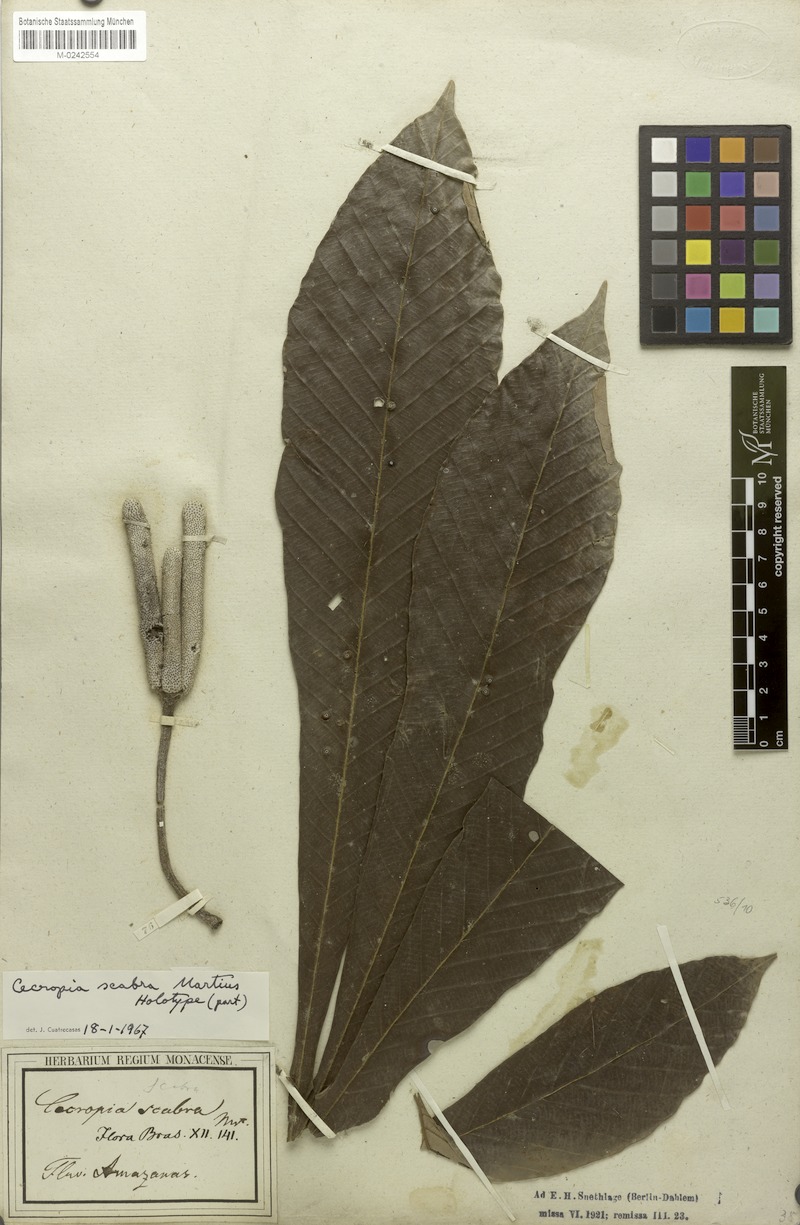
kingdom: Plantae
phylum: Tracheophyta
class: Magnoliopsida
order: Rosales
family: Urticaceae
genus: Pourouma
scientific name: Pourouma guianensis
